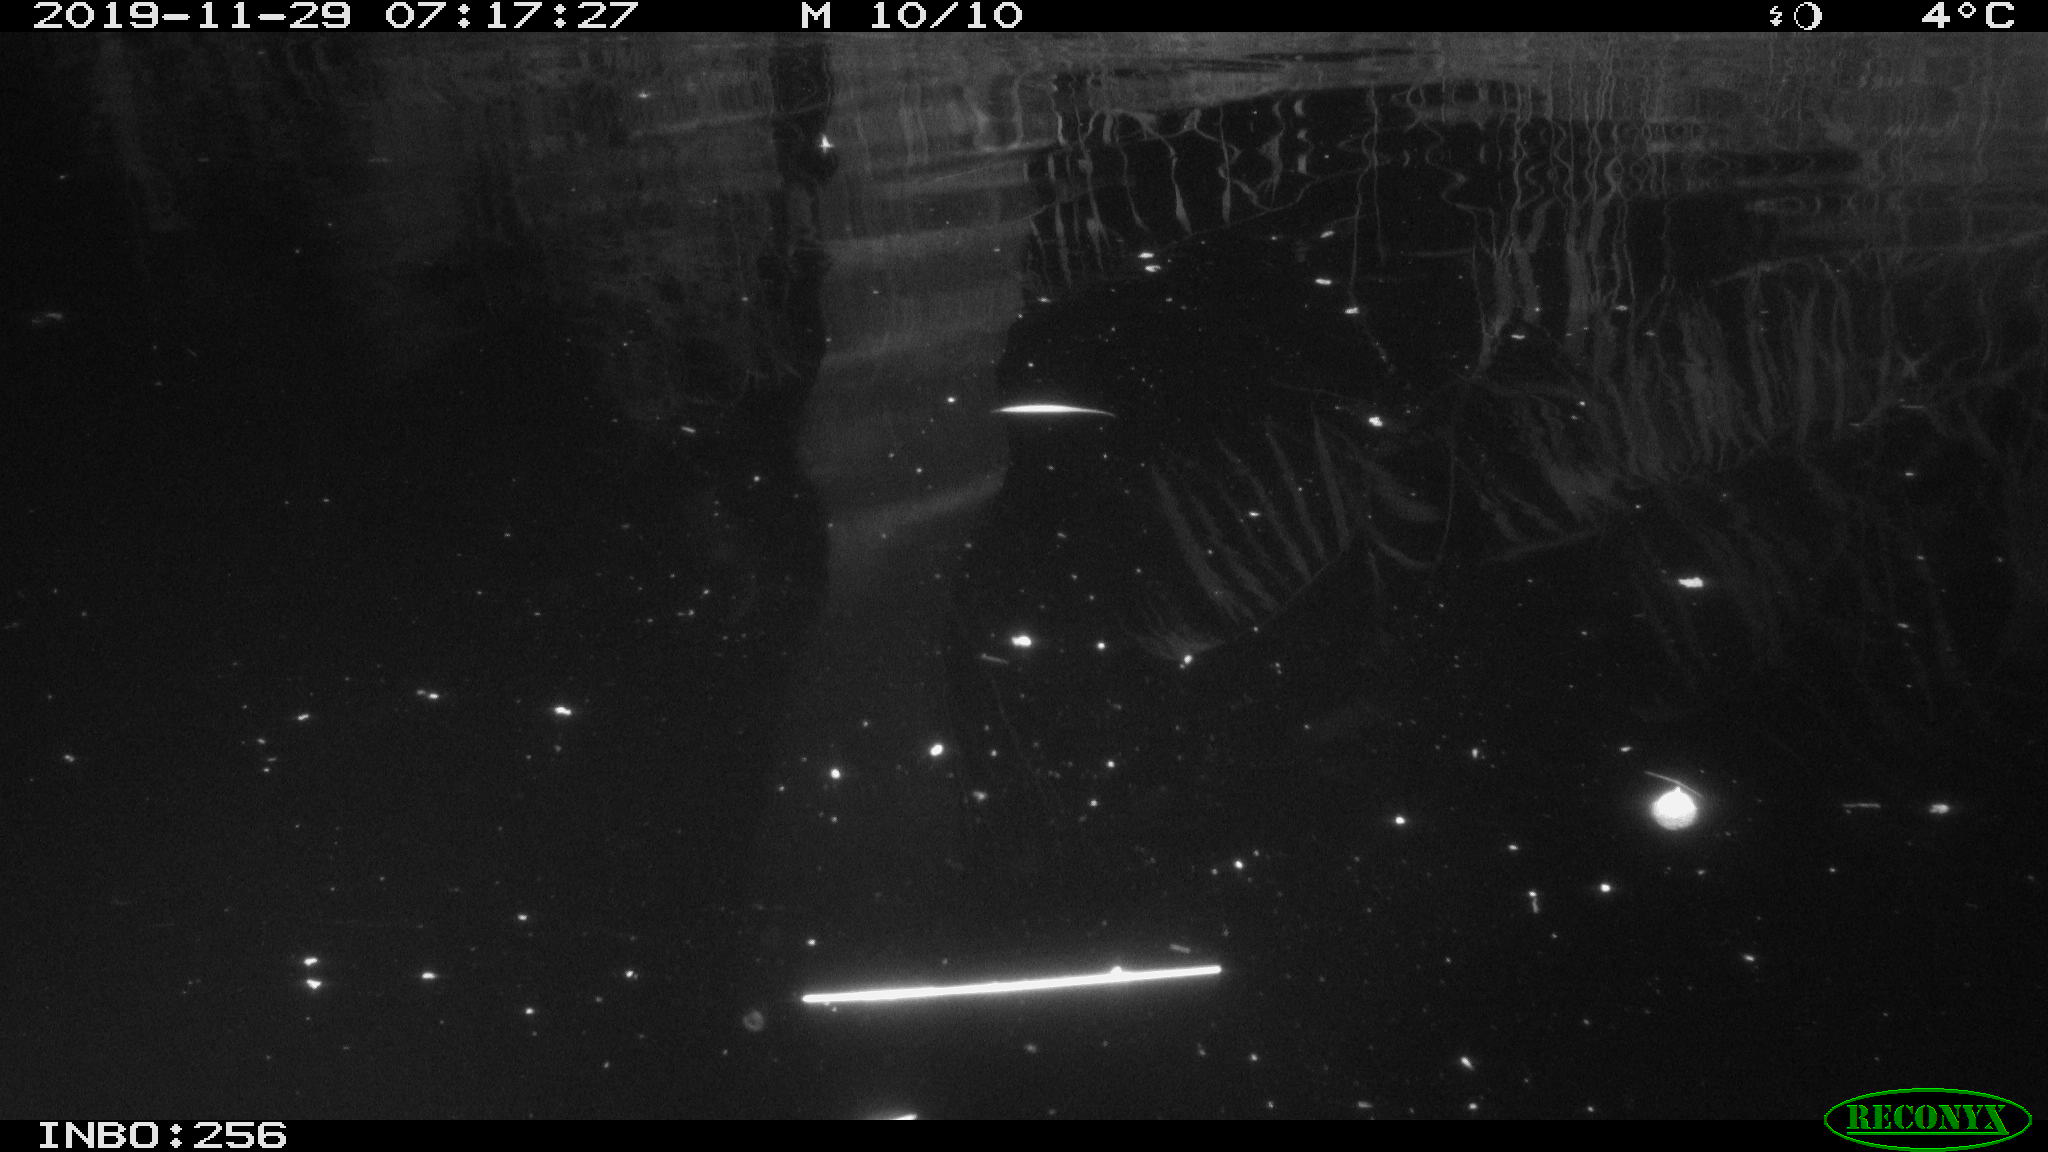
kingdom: Animalia
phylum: Chordata
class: Aves
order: Anseriformes
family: Anatidae
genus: Anas
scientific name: Anas platyrhynchos
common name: Mallard
